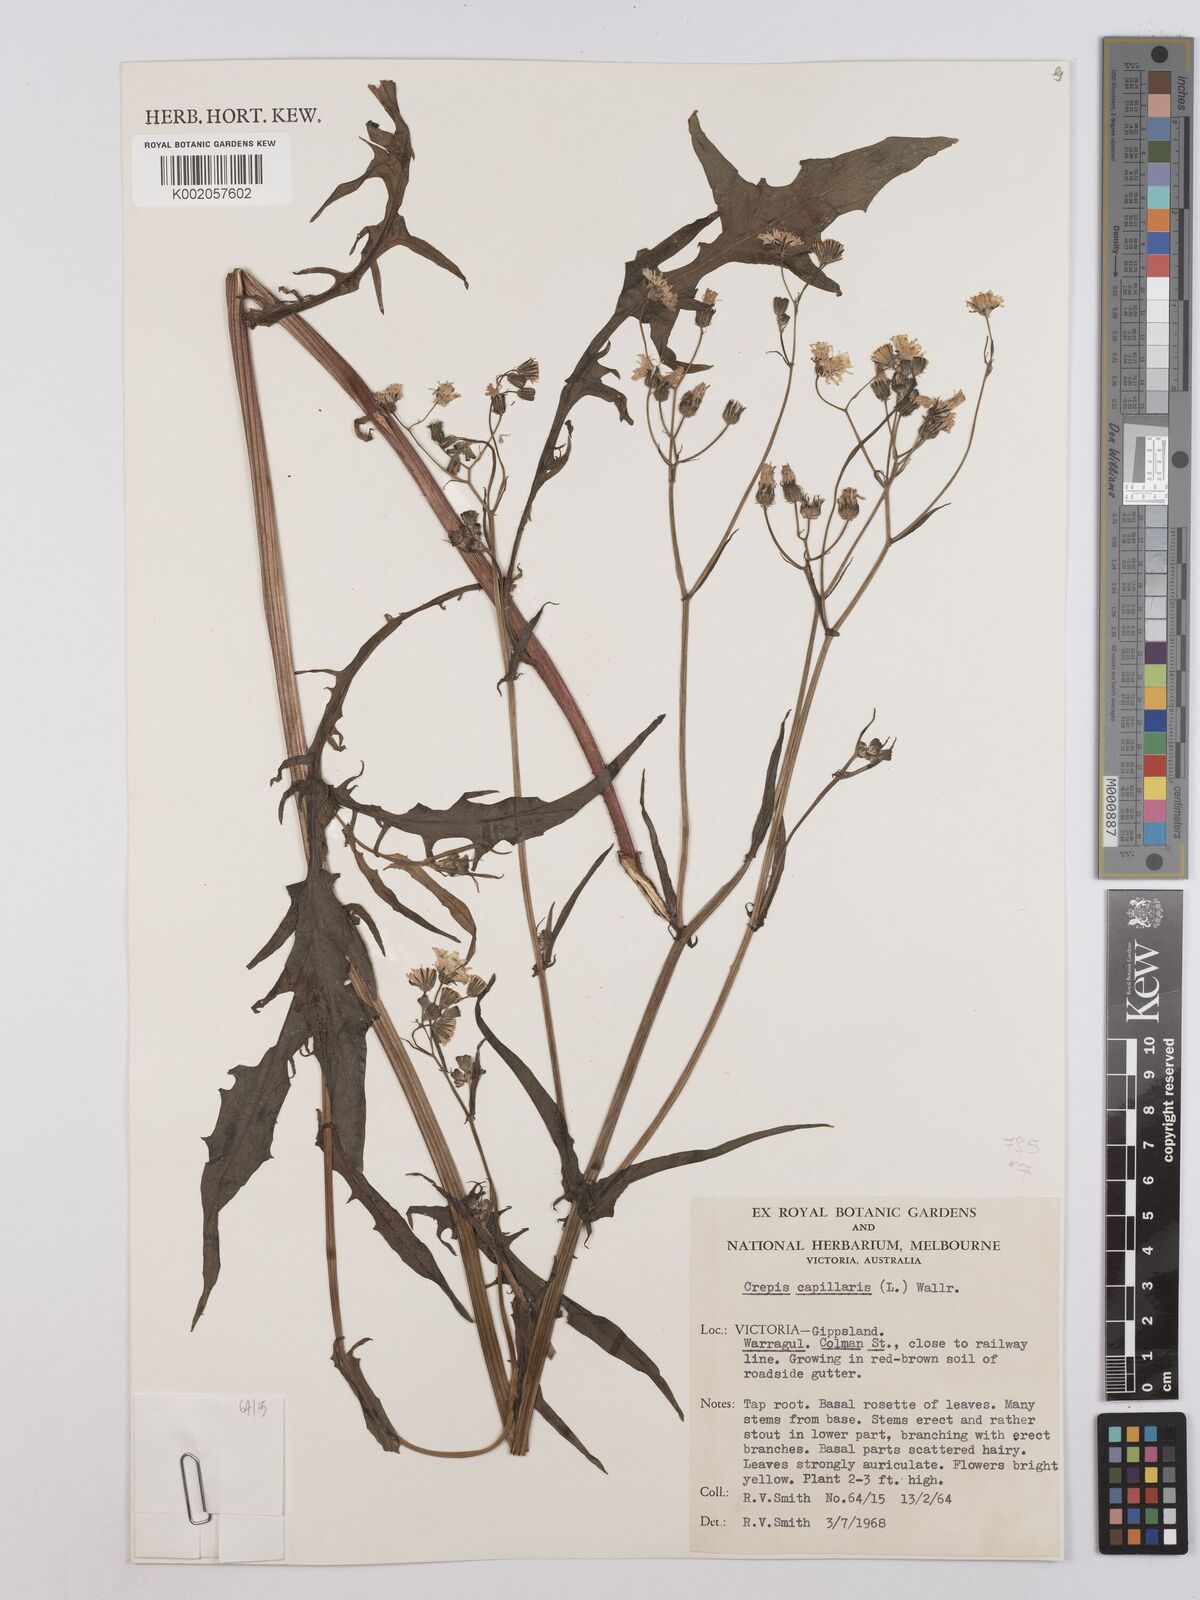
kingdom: Plantae
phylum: Tracheophyta
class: Magnoliopsida
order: Asterales
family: Asteraceae
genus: Crepis
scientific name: Crepis capillaris
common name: Smooth hawksbeard
